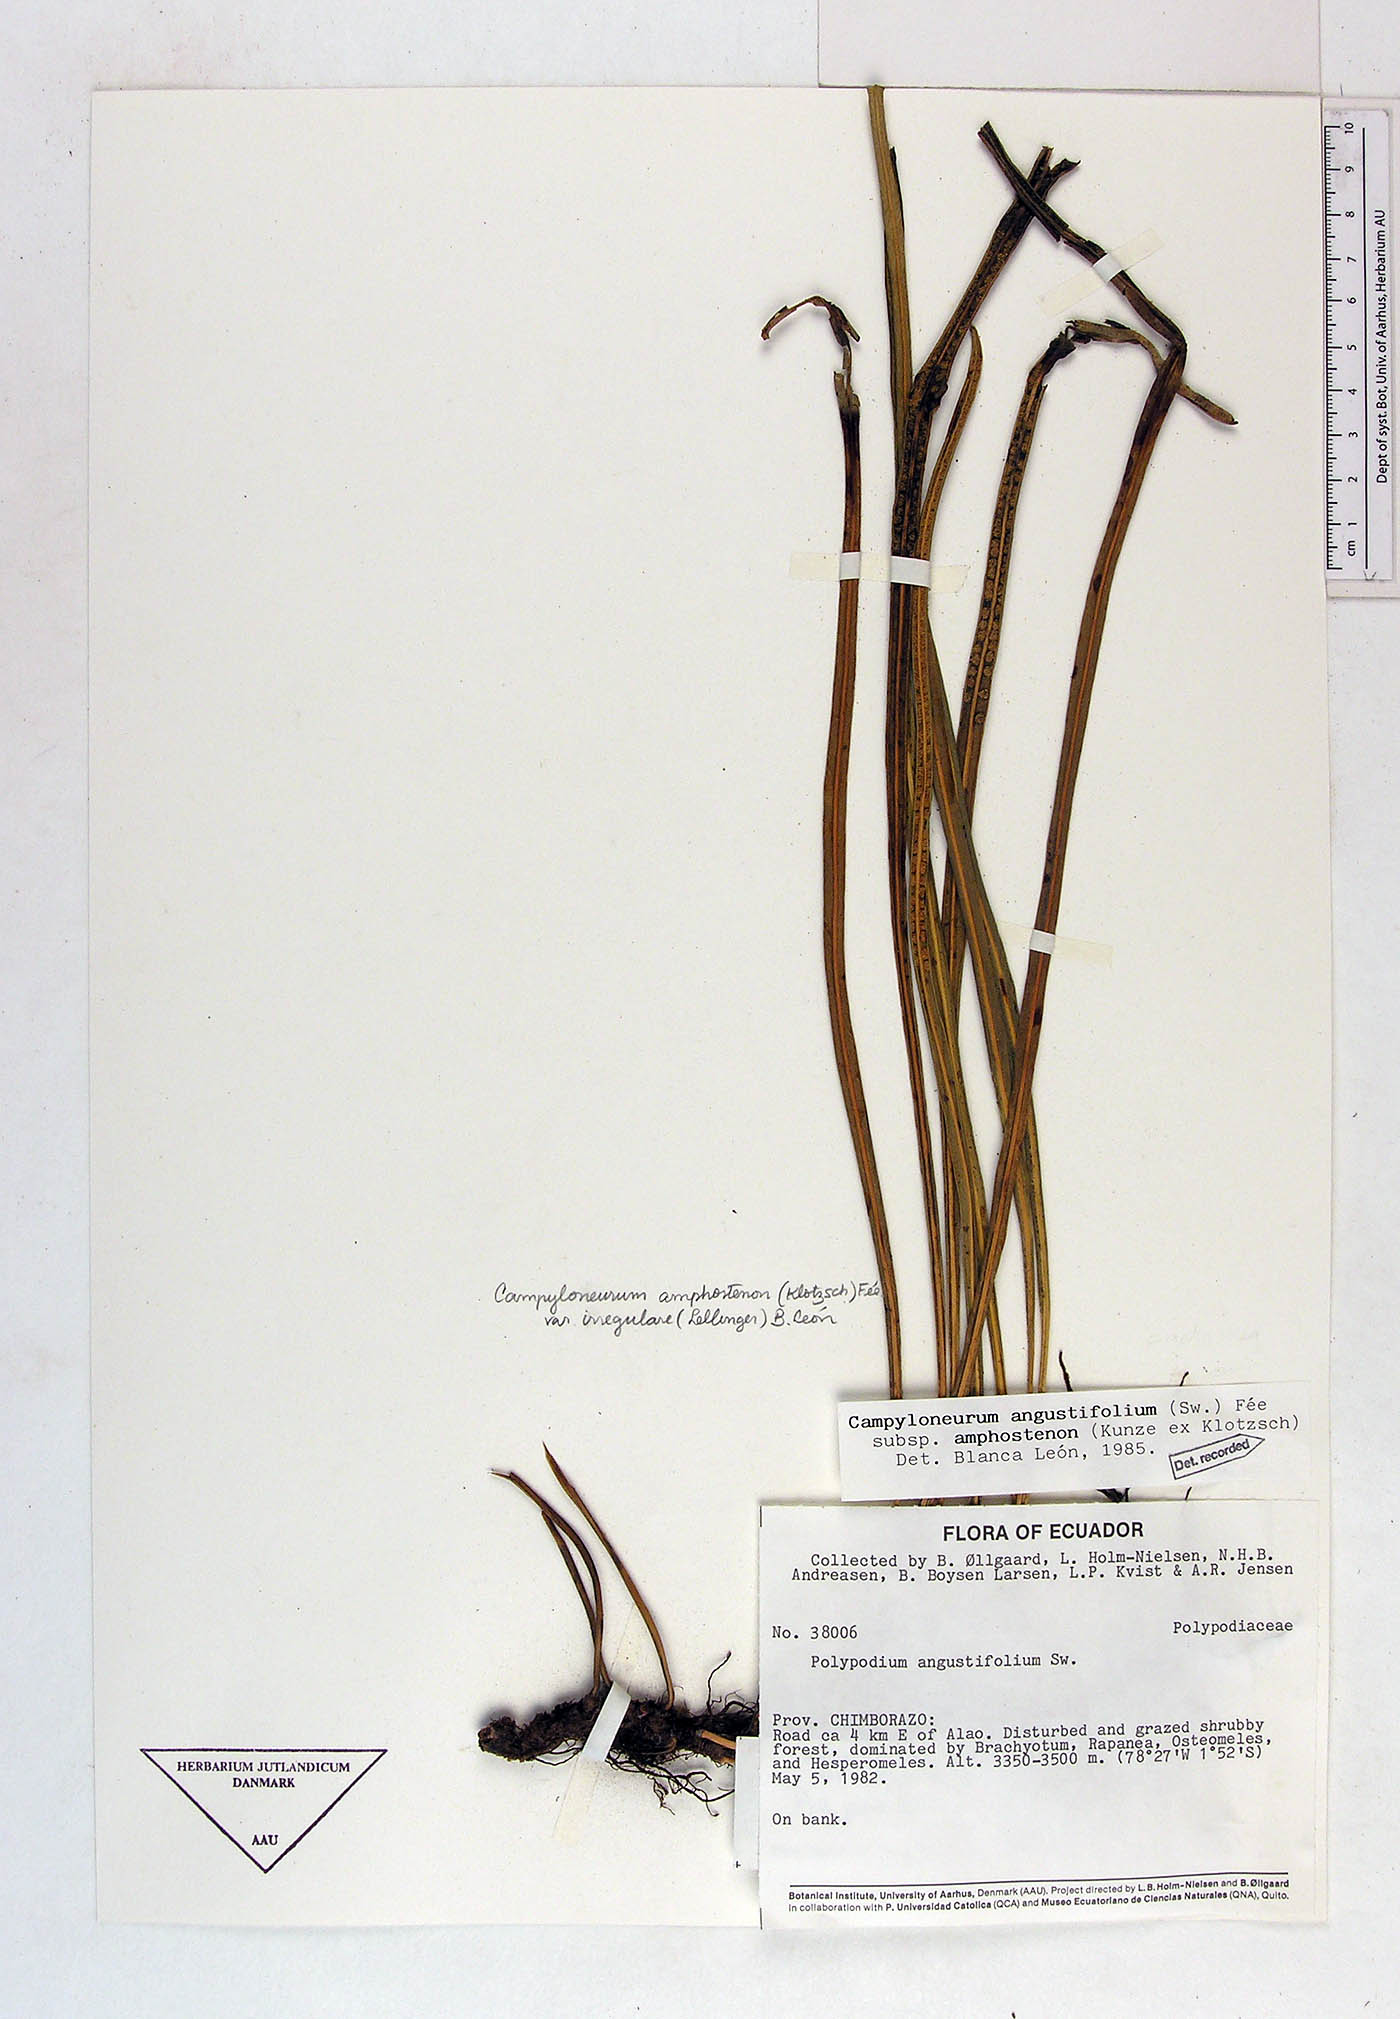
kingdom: Plantae
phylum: Tracheophyta
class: Polypodiopsida
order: Polypodiales
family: Polypodiaceae
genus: Campyloneurum
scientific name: Campyloneurum angustifolium
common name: Narrow-leaf strap fern
